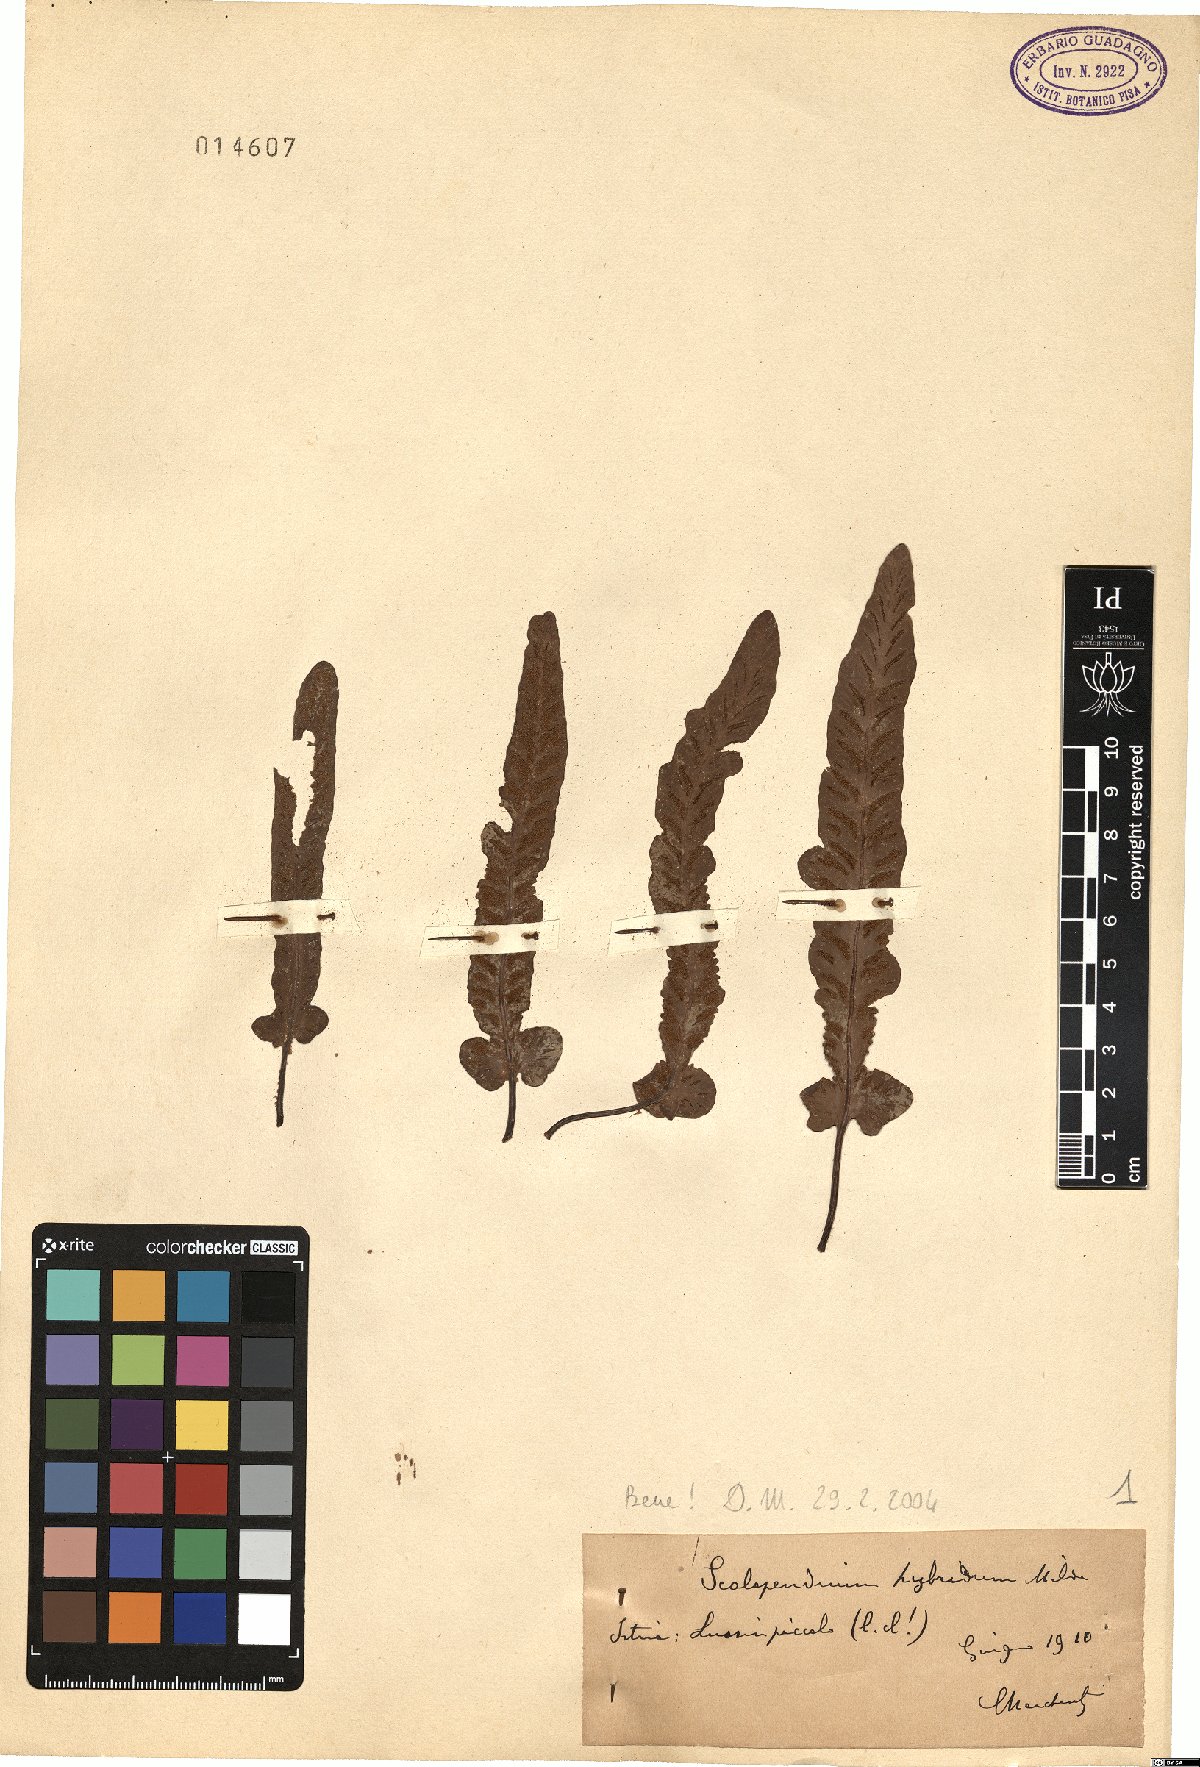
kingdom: Plantae
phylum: Tracheophyta
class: Polypodiopsida
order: Polypodiales
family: Aspleniaceae
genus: Asplenium
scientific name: Asplenium hybridum
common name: Dalmatian spleenwort
